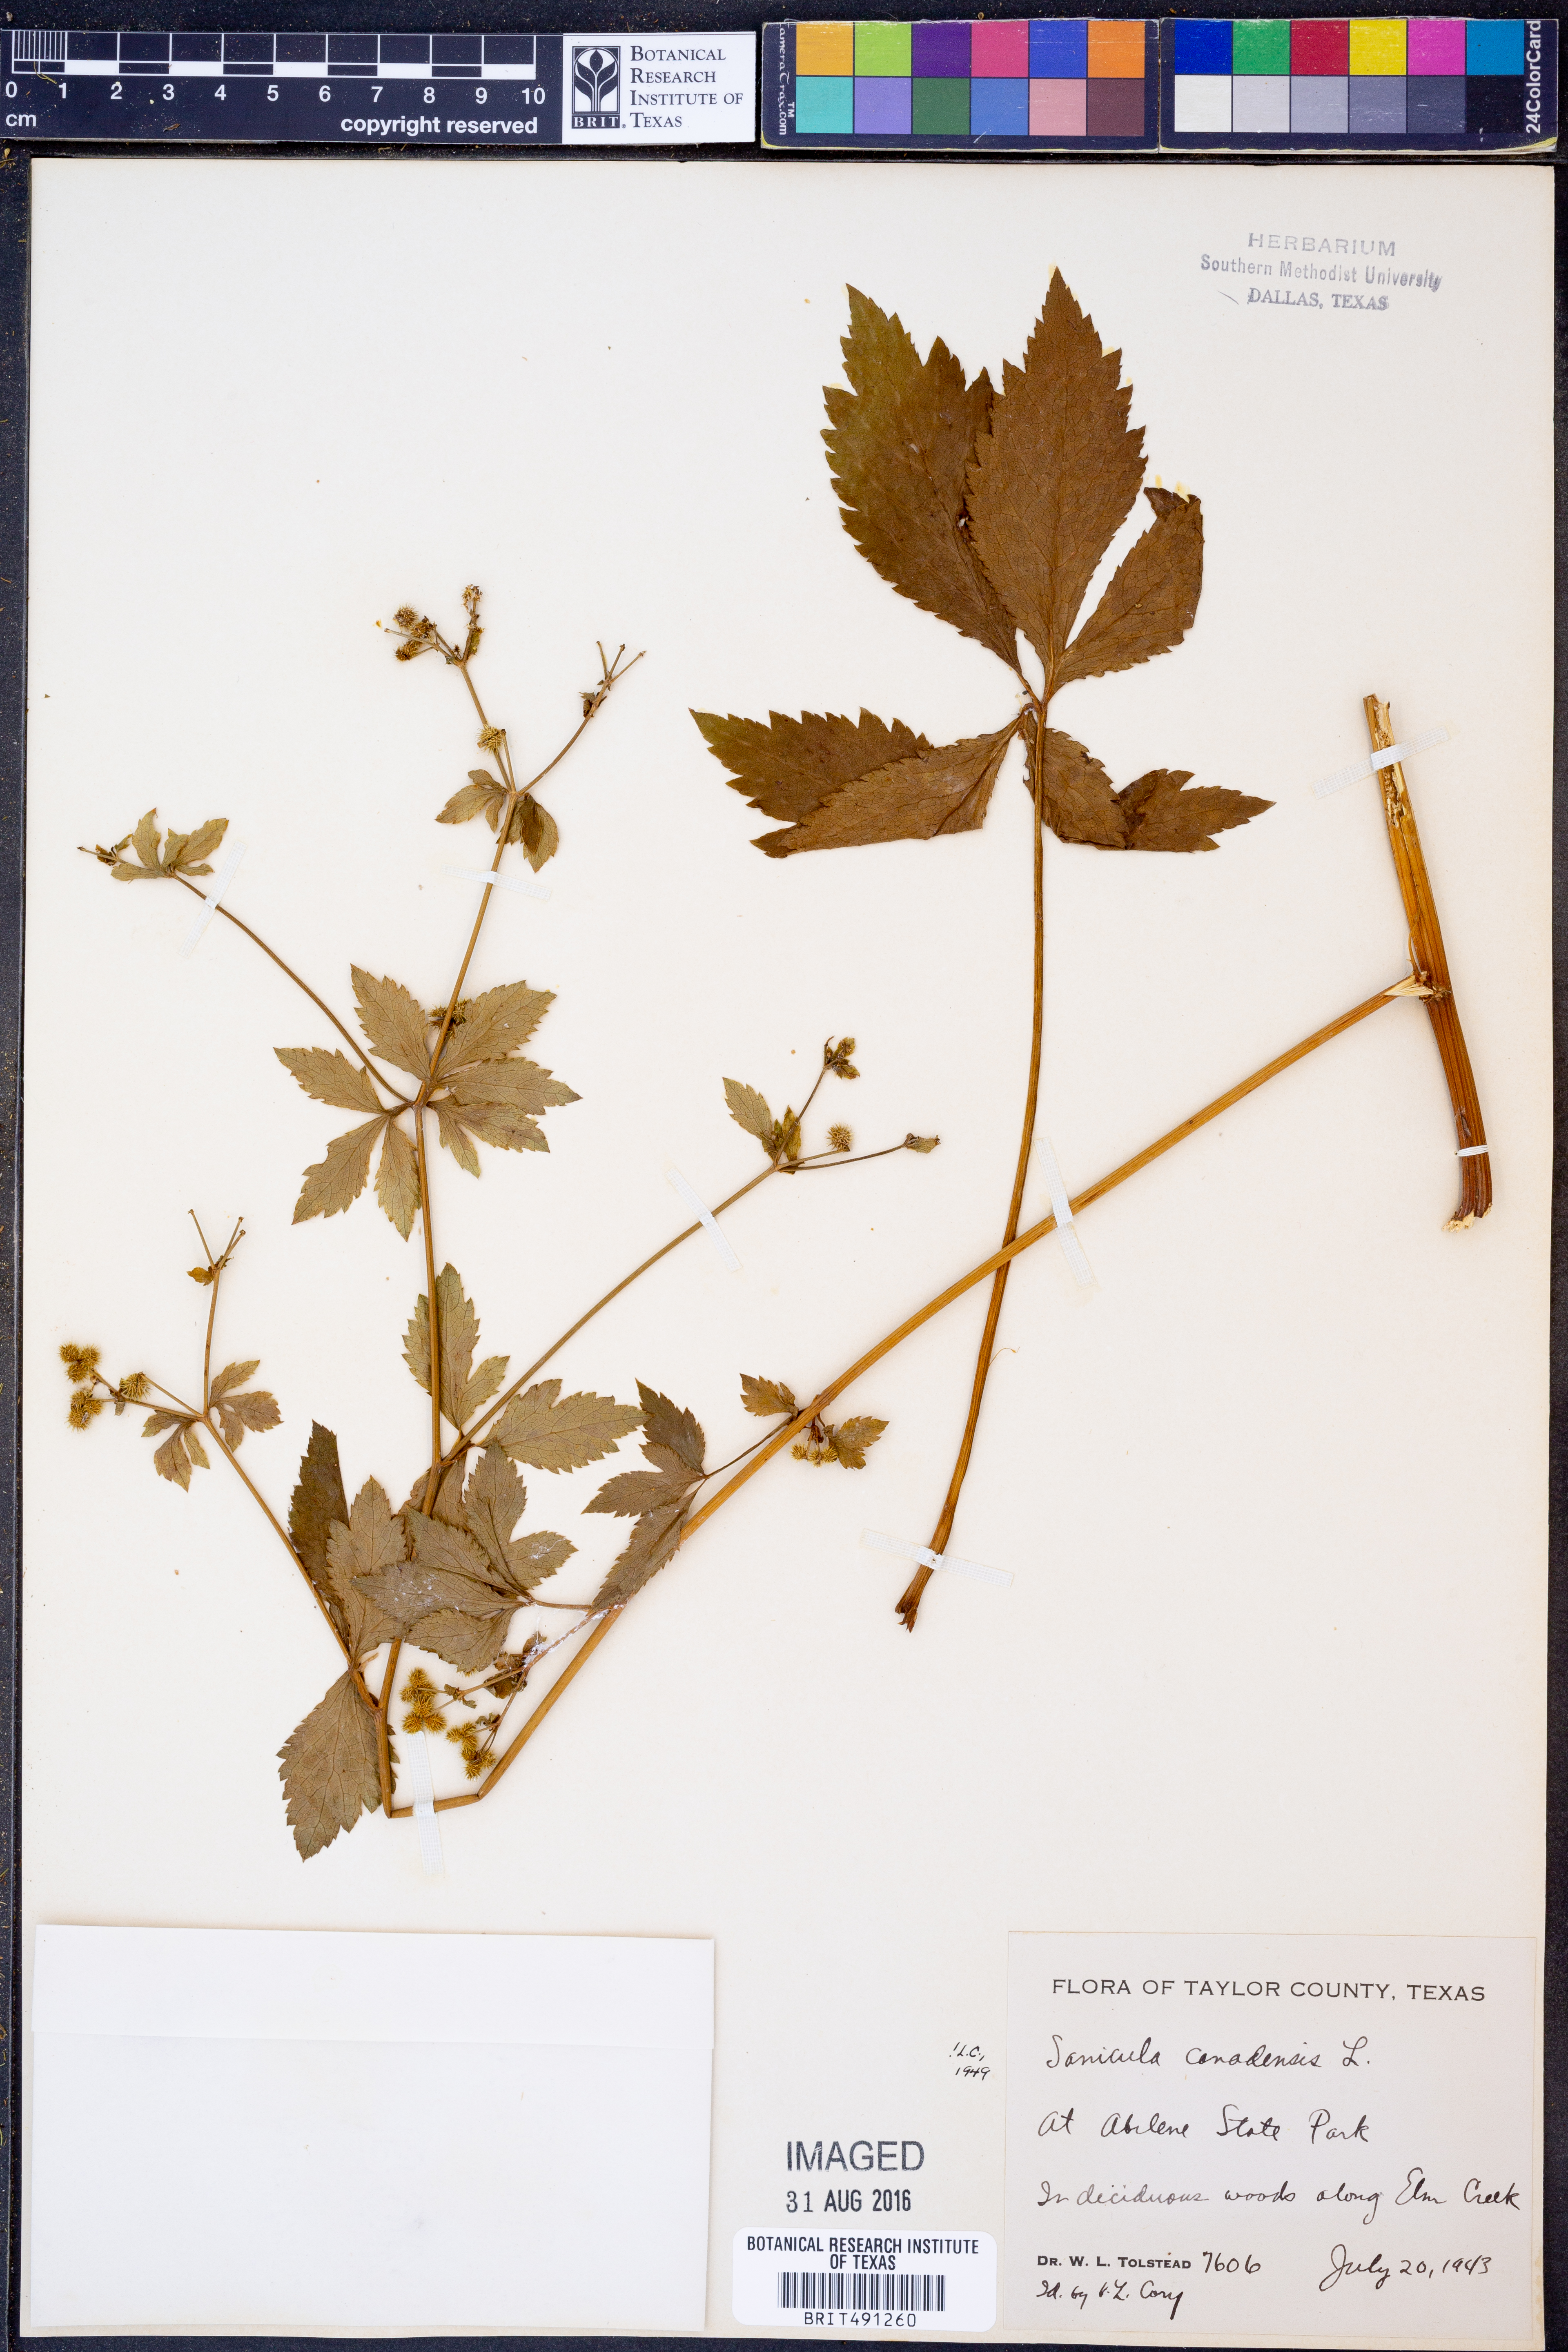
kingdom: Plantae
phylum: Tracheophyta
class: Magnoliopsida
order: Apiales
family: Apiaceae
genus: Sanicula
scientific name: Sanicula canadensis
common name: Canada sanicle
